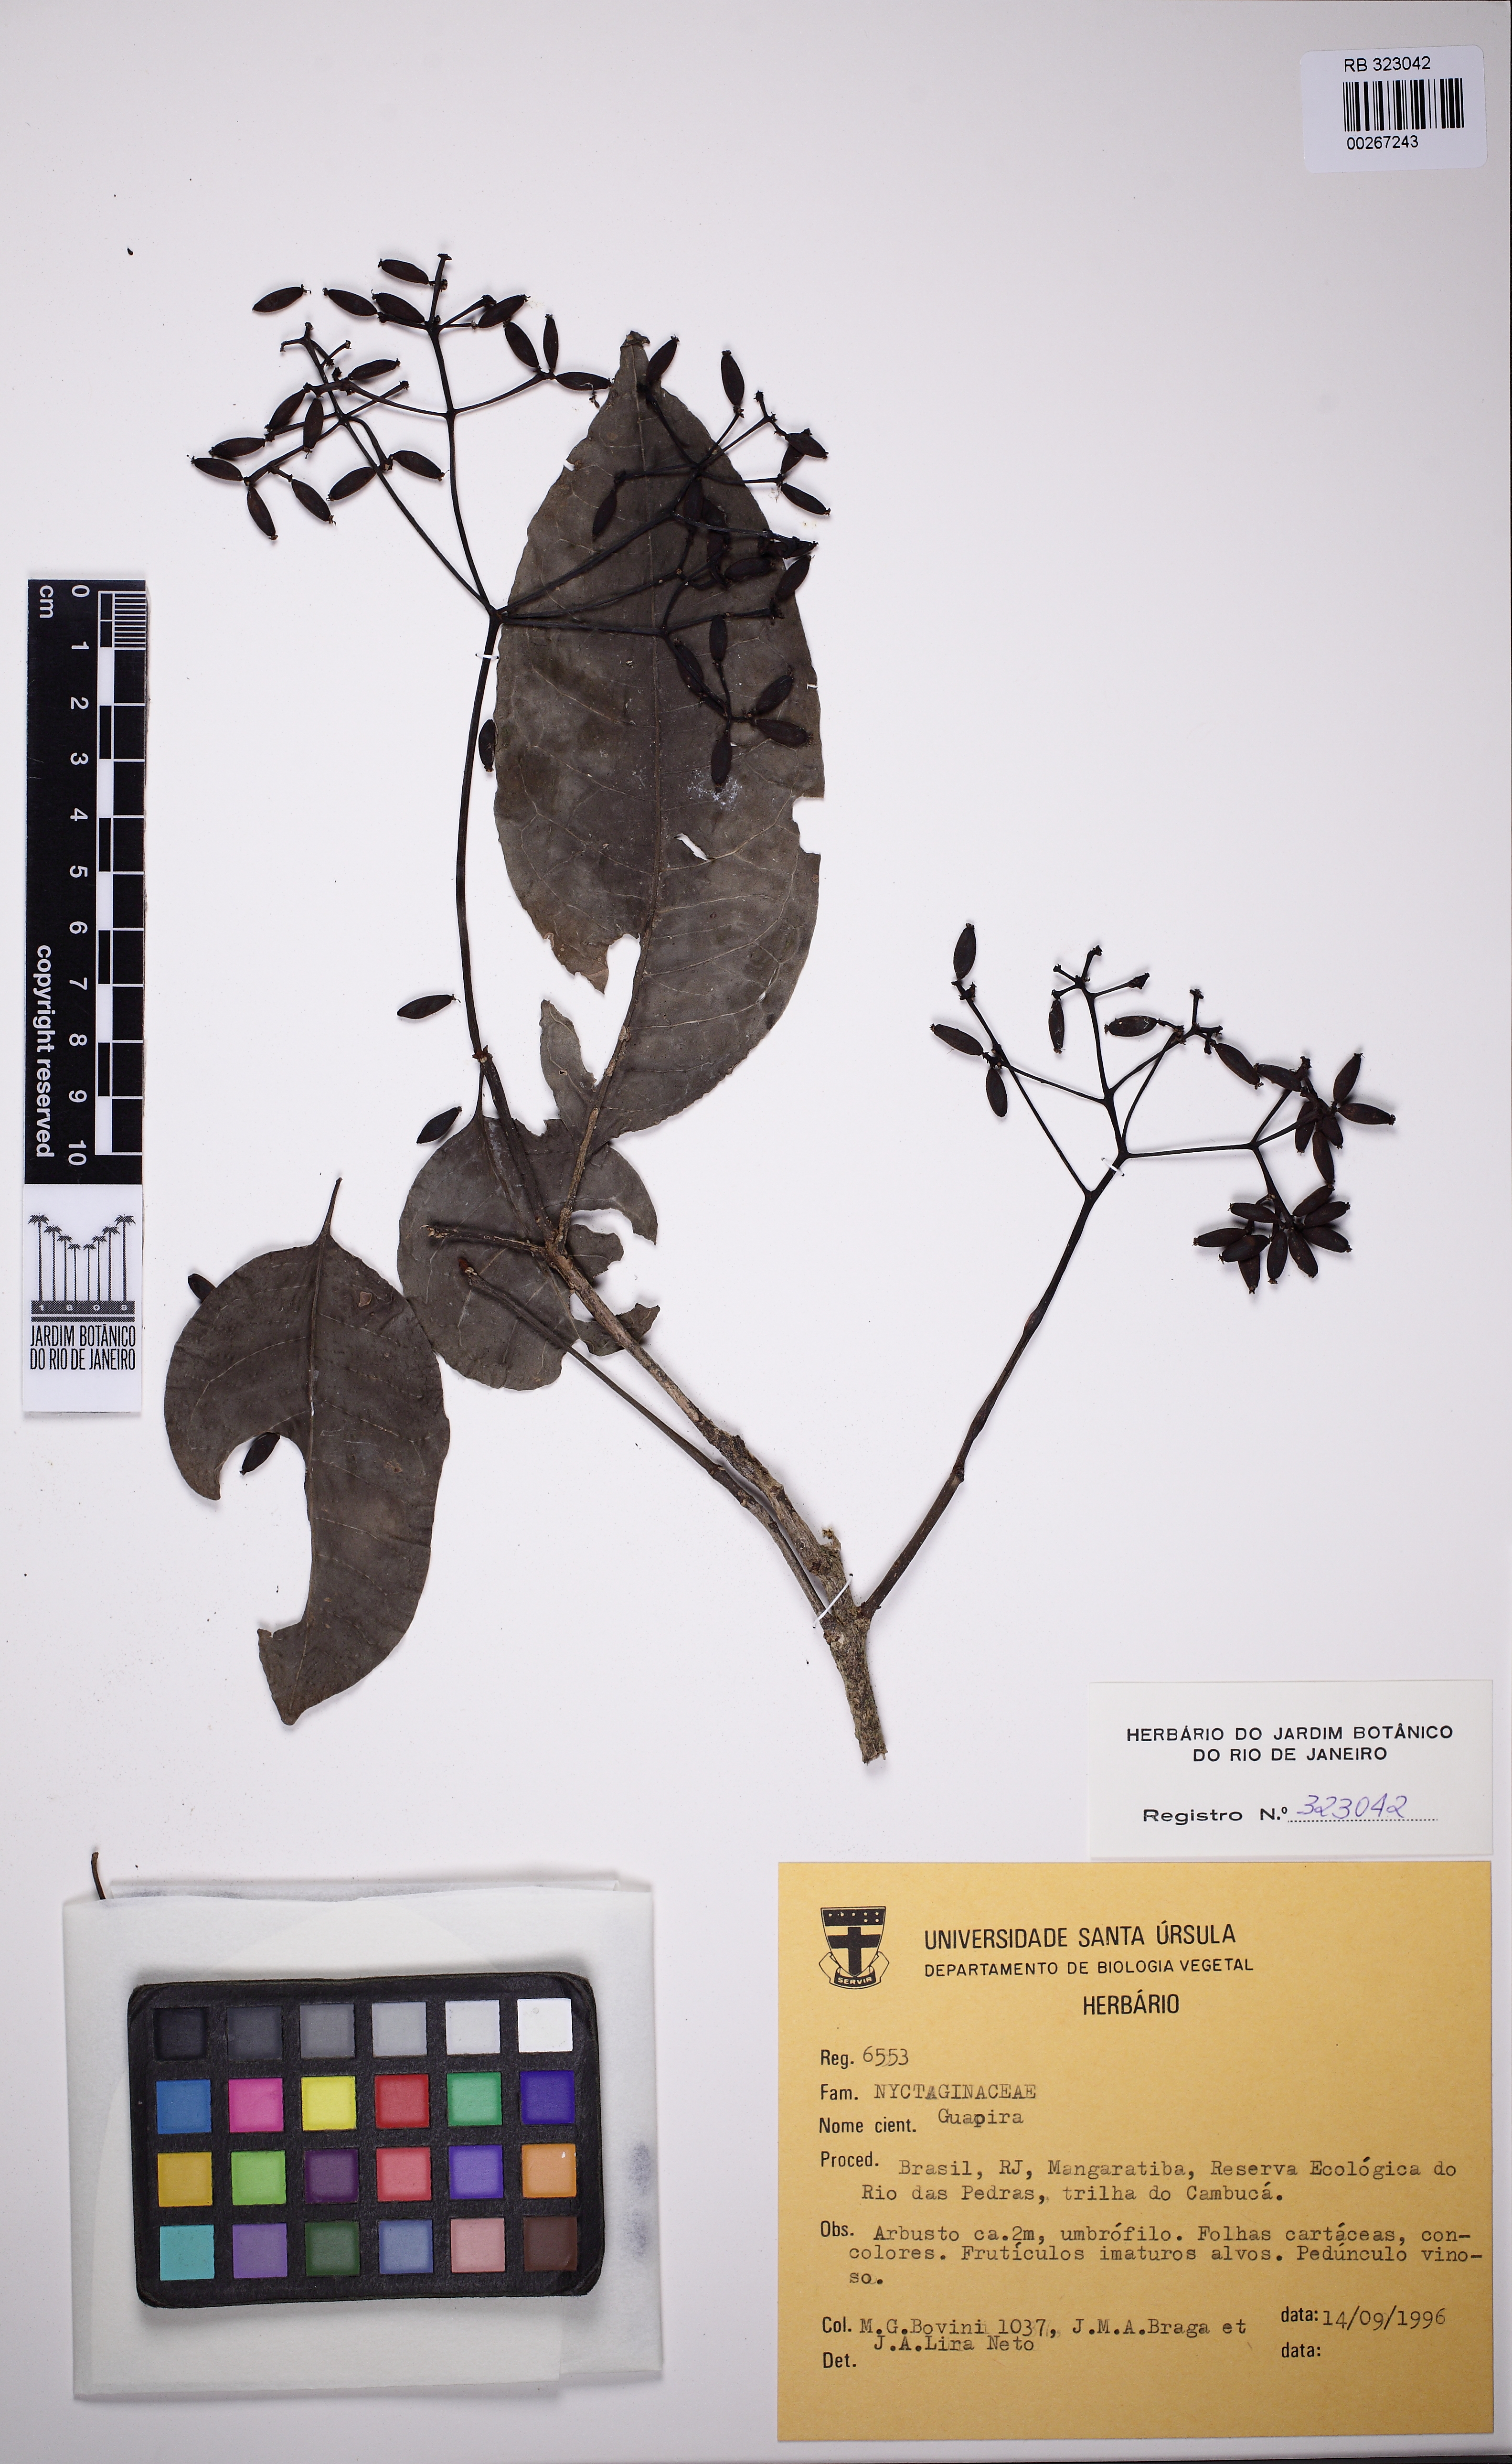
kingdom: Plantae
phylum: Tracheophyta
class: Magnoliopsida
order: Caryophyllales
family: Nyctaginaceae
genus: Guapira
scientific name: Guapira nitida
